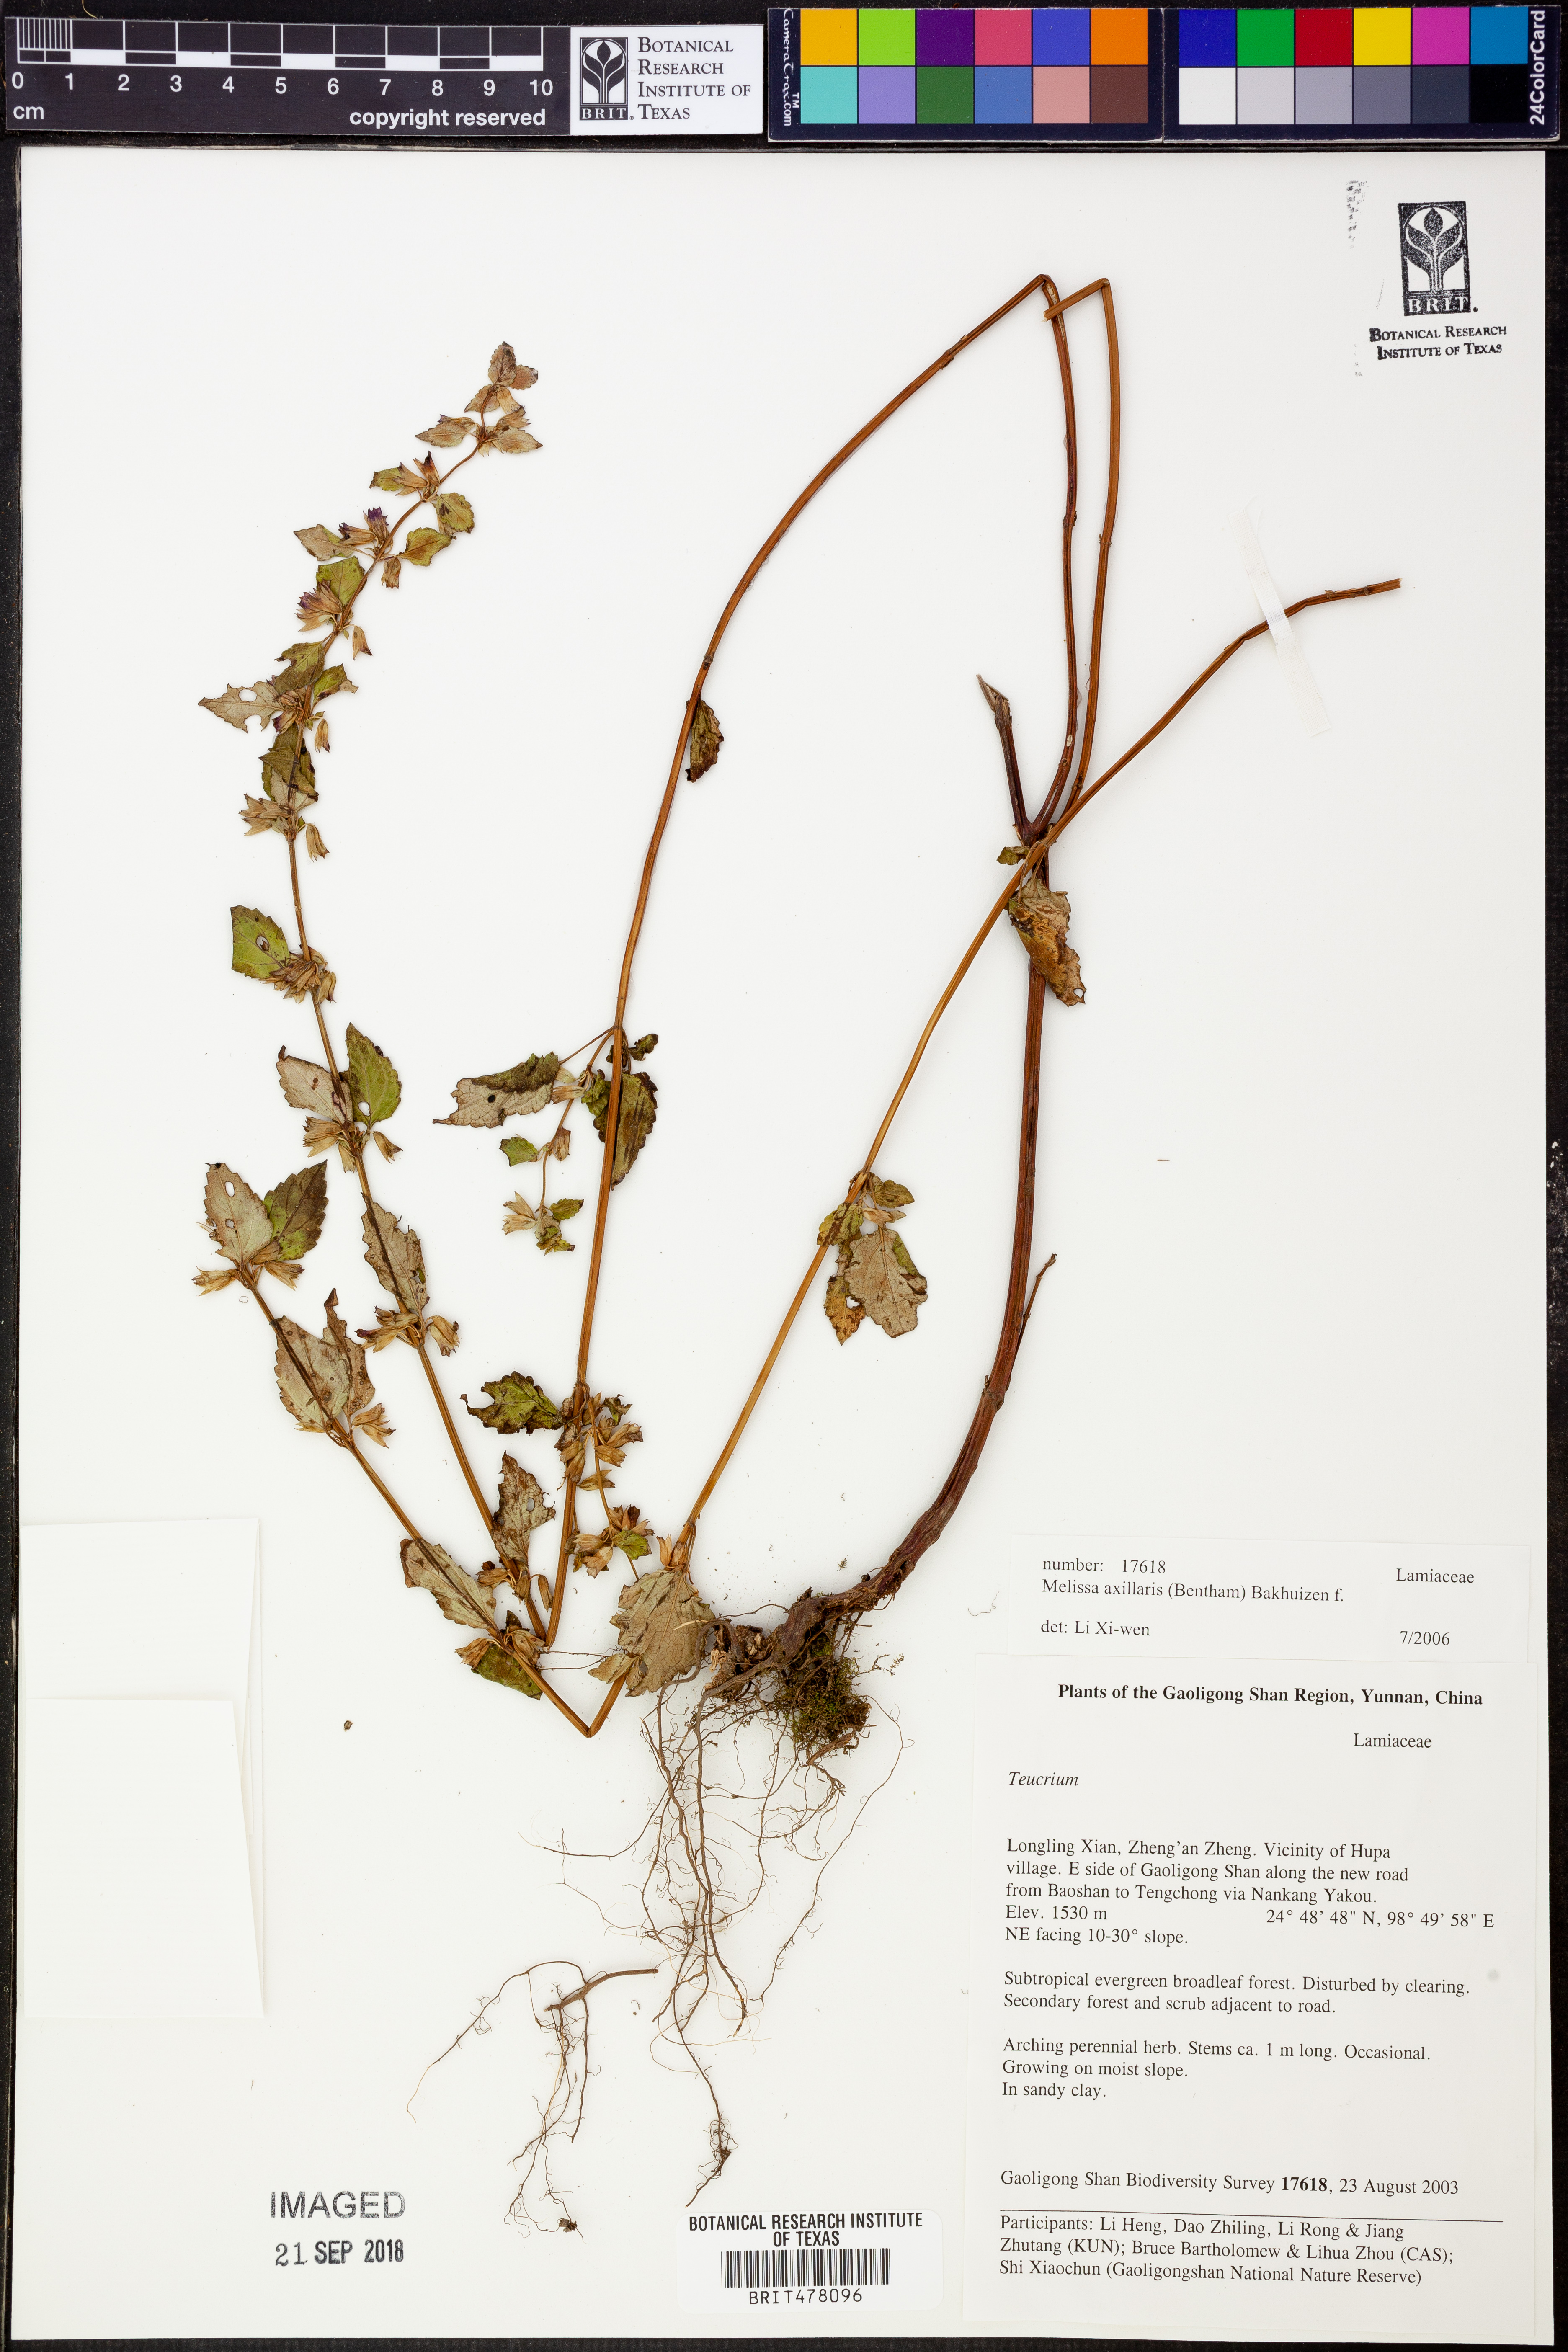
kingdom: Plantae
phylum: Tracheophyta
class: Magnoliopsida
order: Lamiales
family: Lamiaceae
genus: Melissa
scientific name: Melissa axillaris
